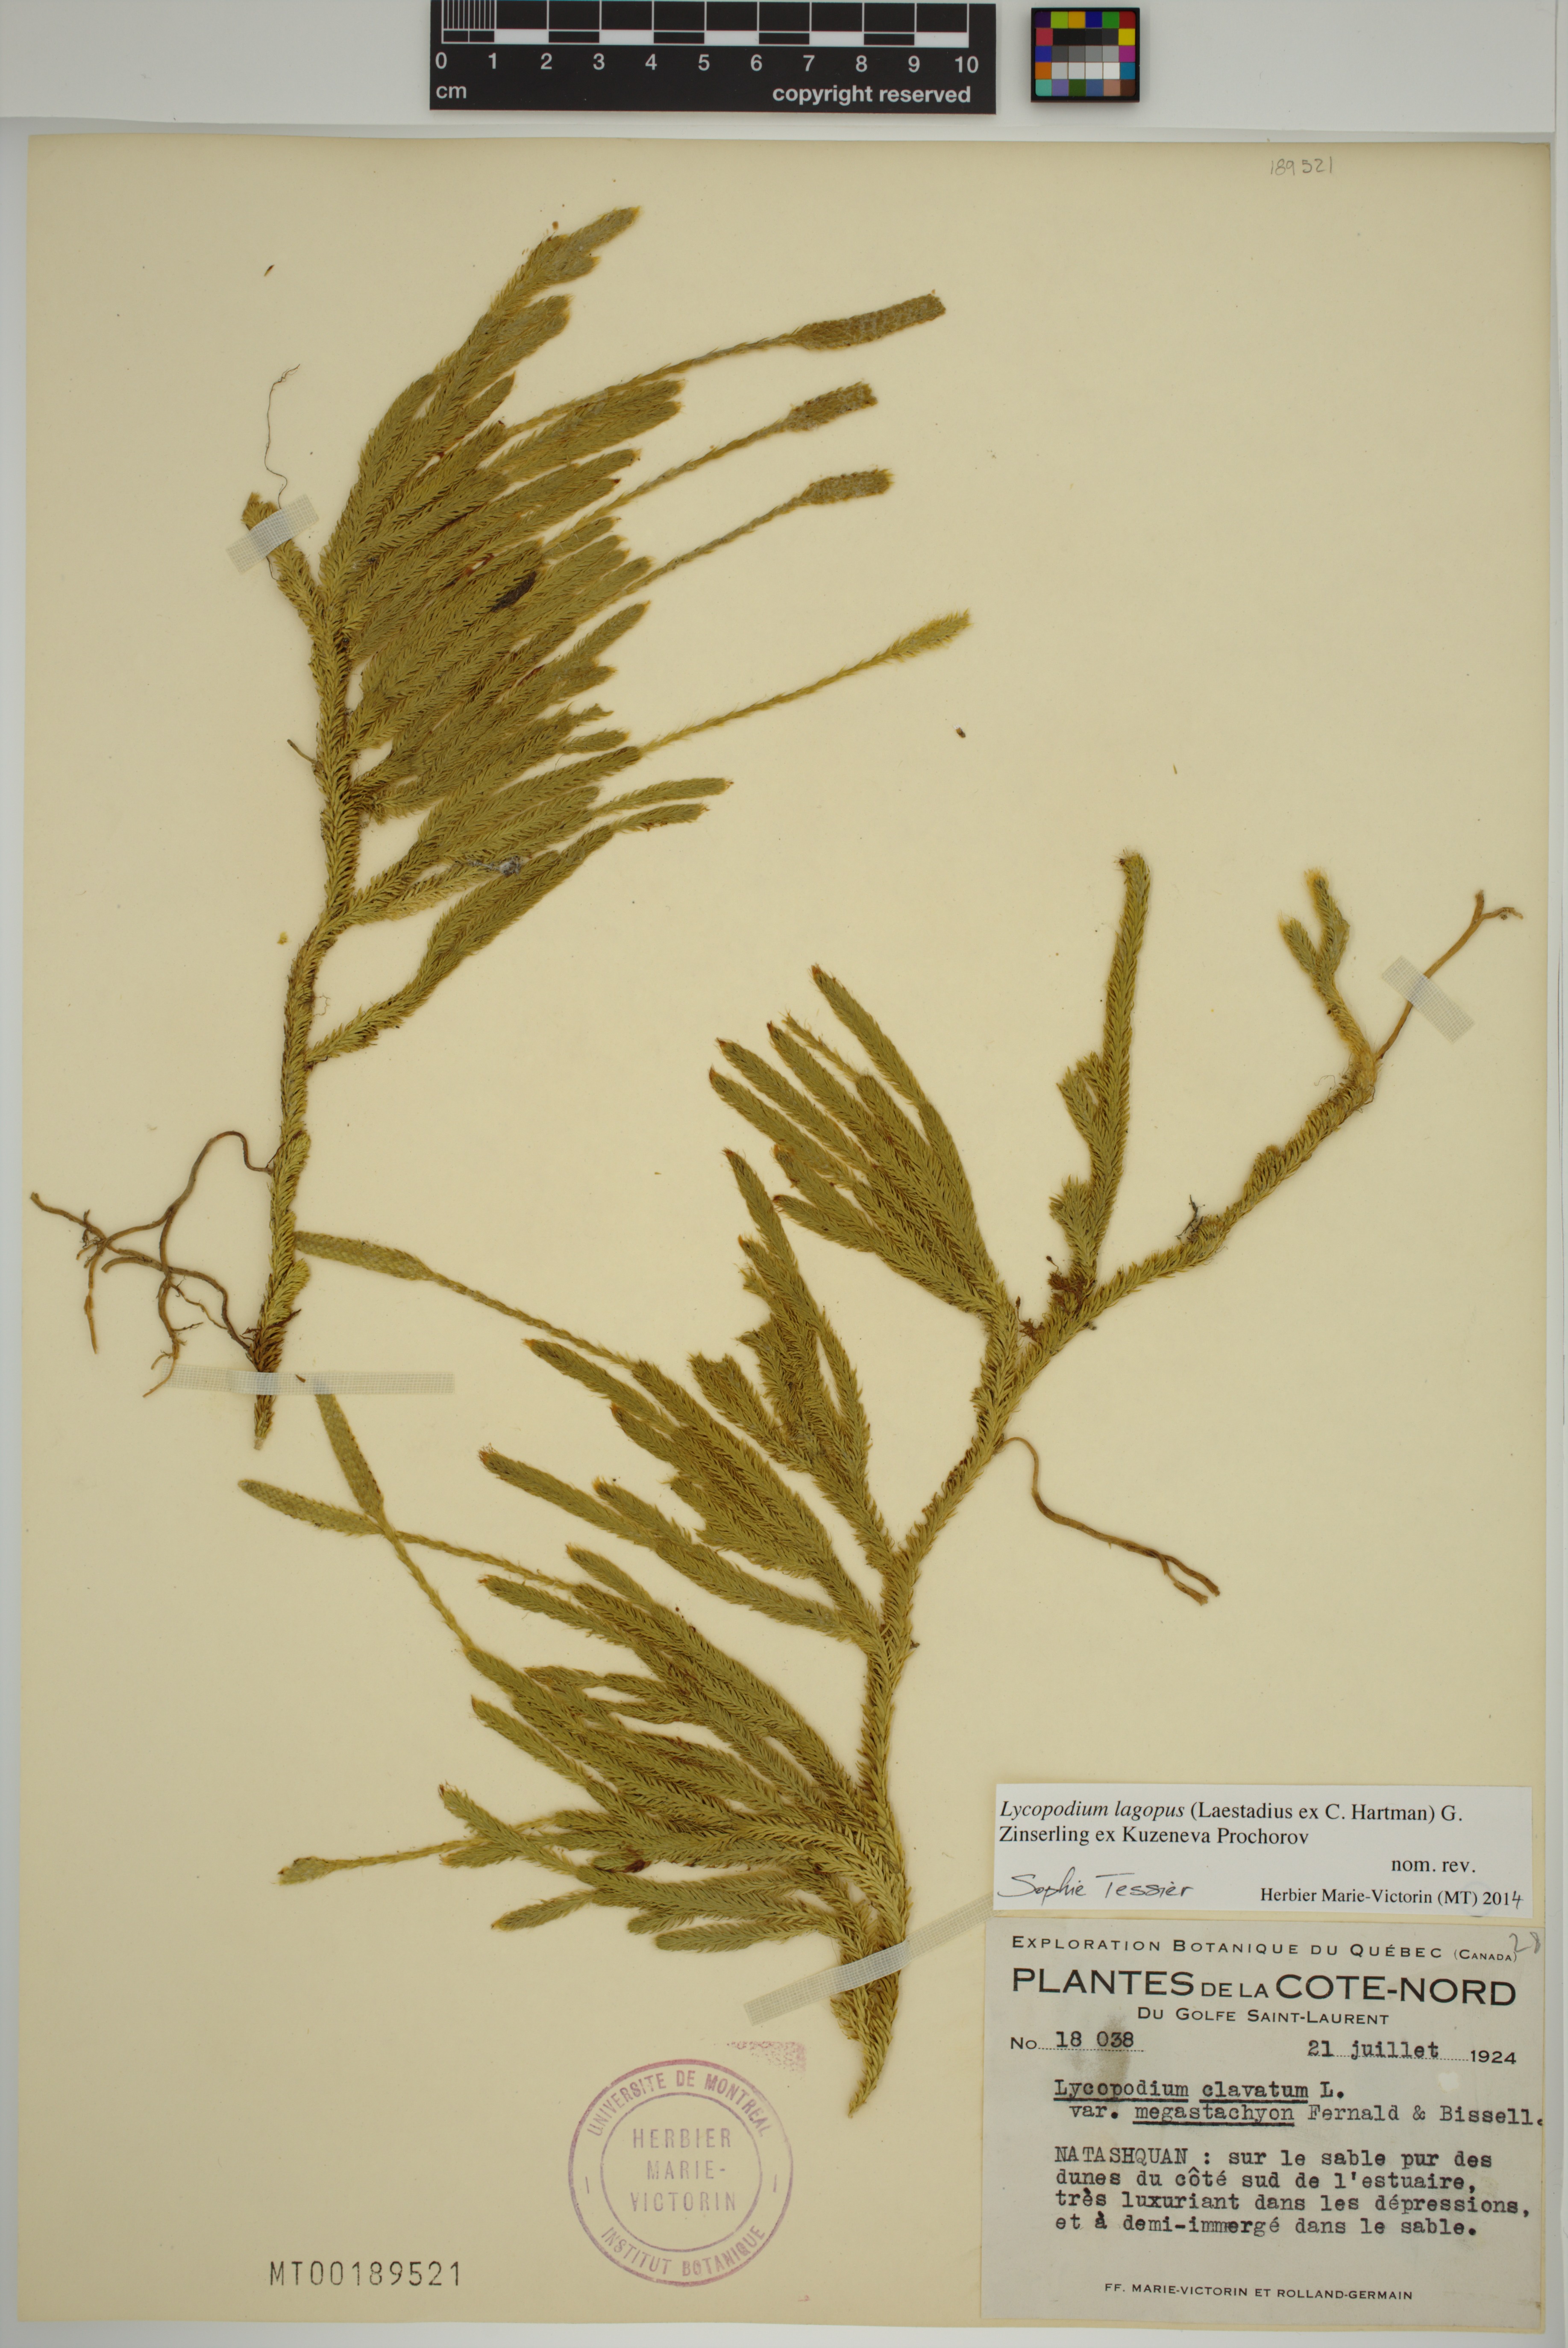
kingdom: Plantae
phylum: Tracheophyta
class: Lycopodiopsida
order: Lycopodiales
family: Lycopodiaceae
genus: Lycopodium
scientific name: Lycopodium lagopus
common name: One-cone clubmoss
